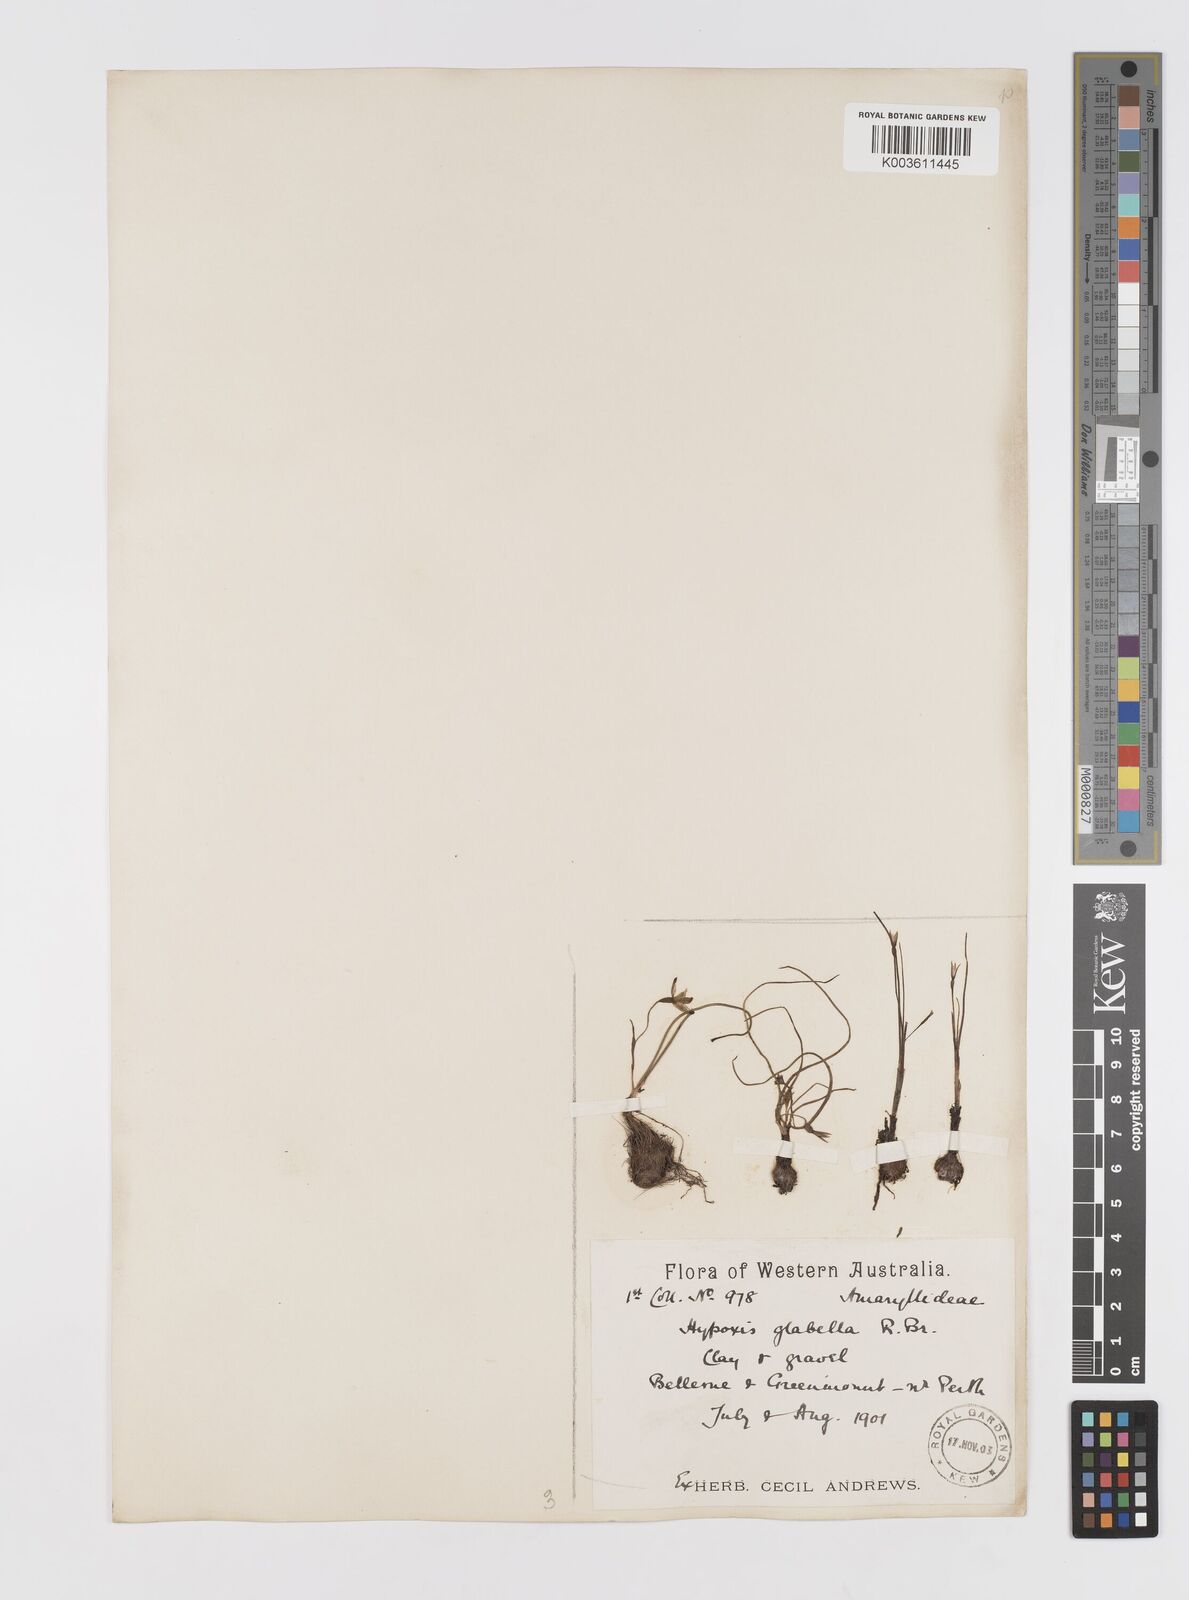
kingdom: Plantae
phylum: Tracheophyta
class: Liliopsida
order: Asparagales
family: Hypoxidaceae
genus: Pauridia
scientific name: Pauridia glabella
